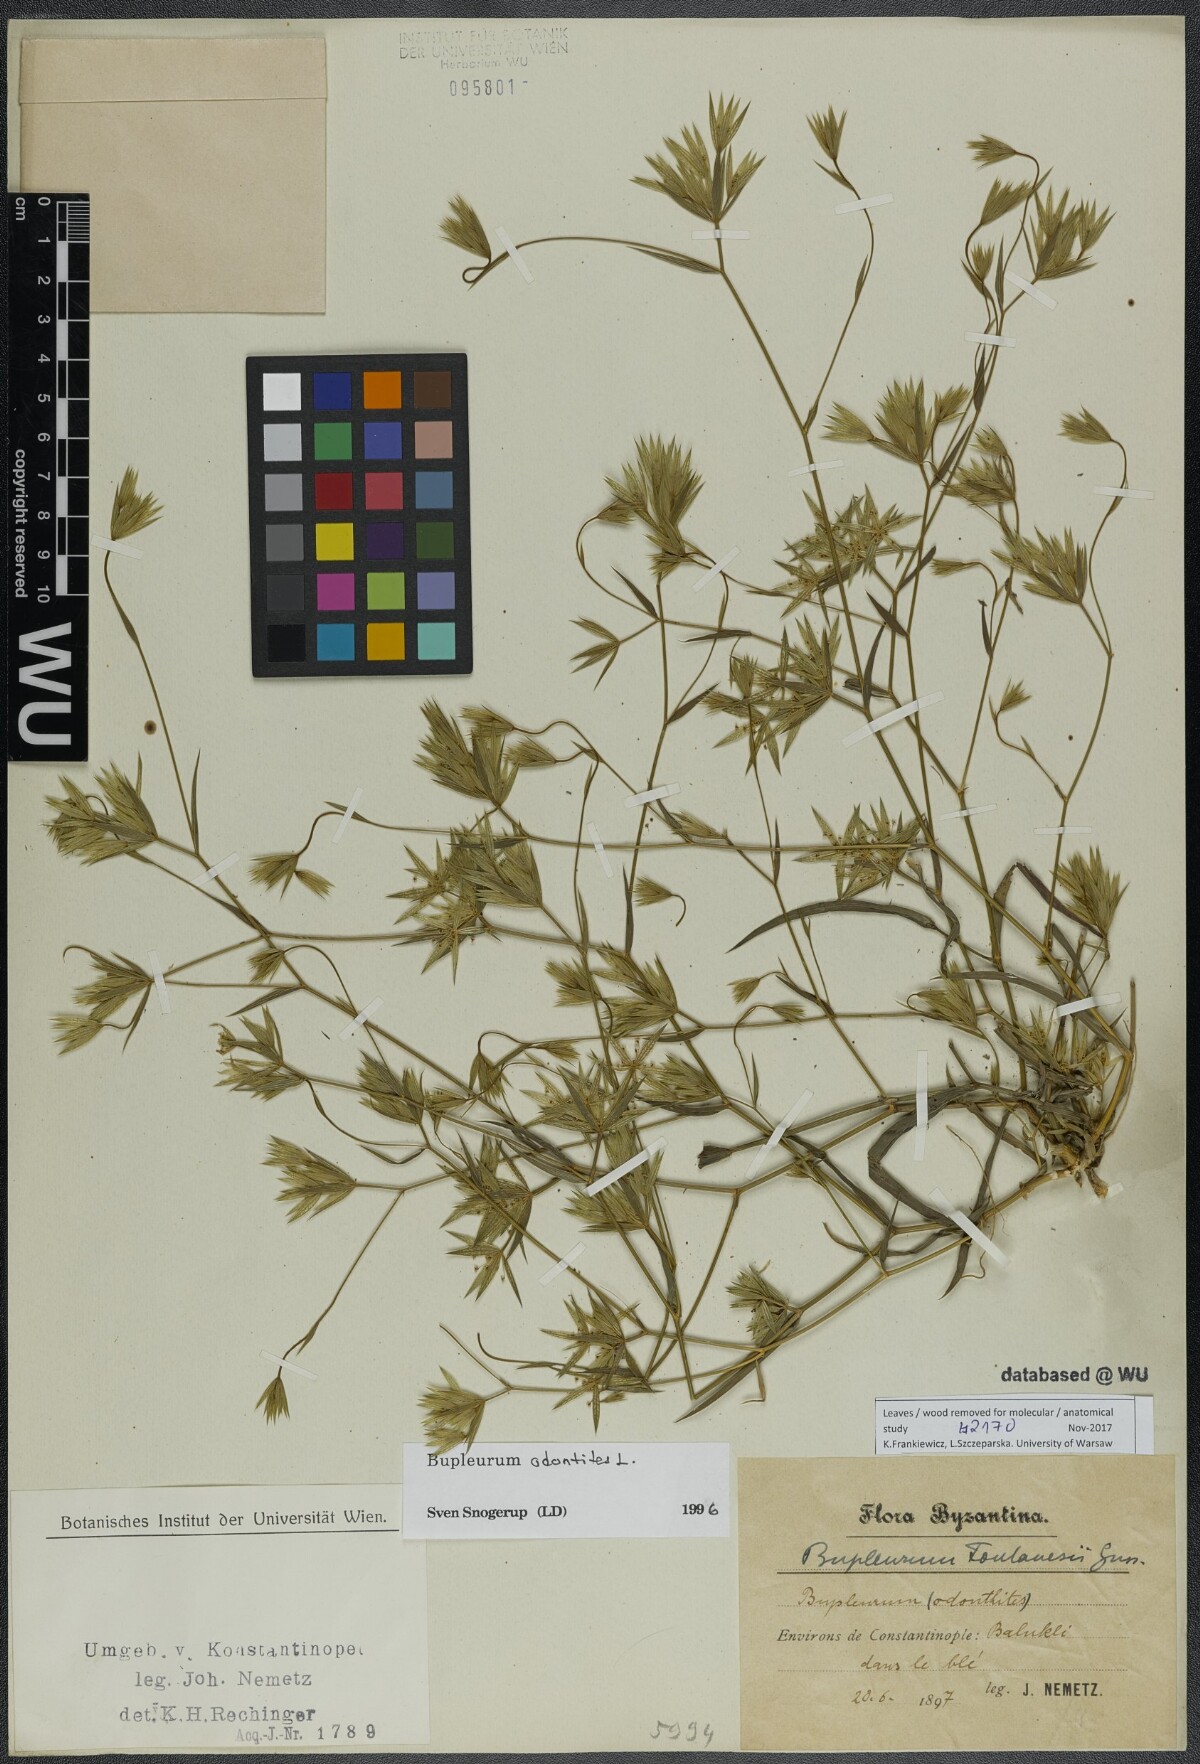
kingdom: Plantae
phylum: Tracheophyta
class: Magnoliopsida
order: Apiales
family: Apiaceae
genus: Bupleurum
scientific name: Bupleurum odontites
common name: Narrowleaf thorow wax
